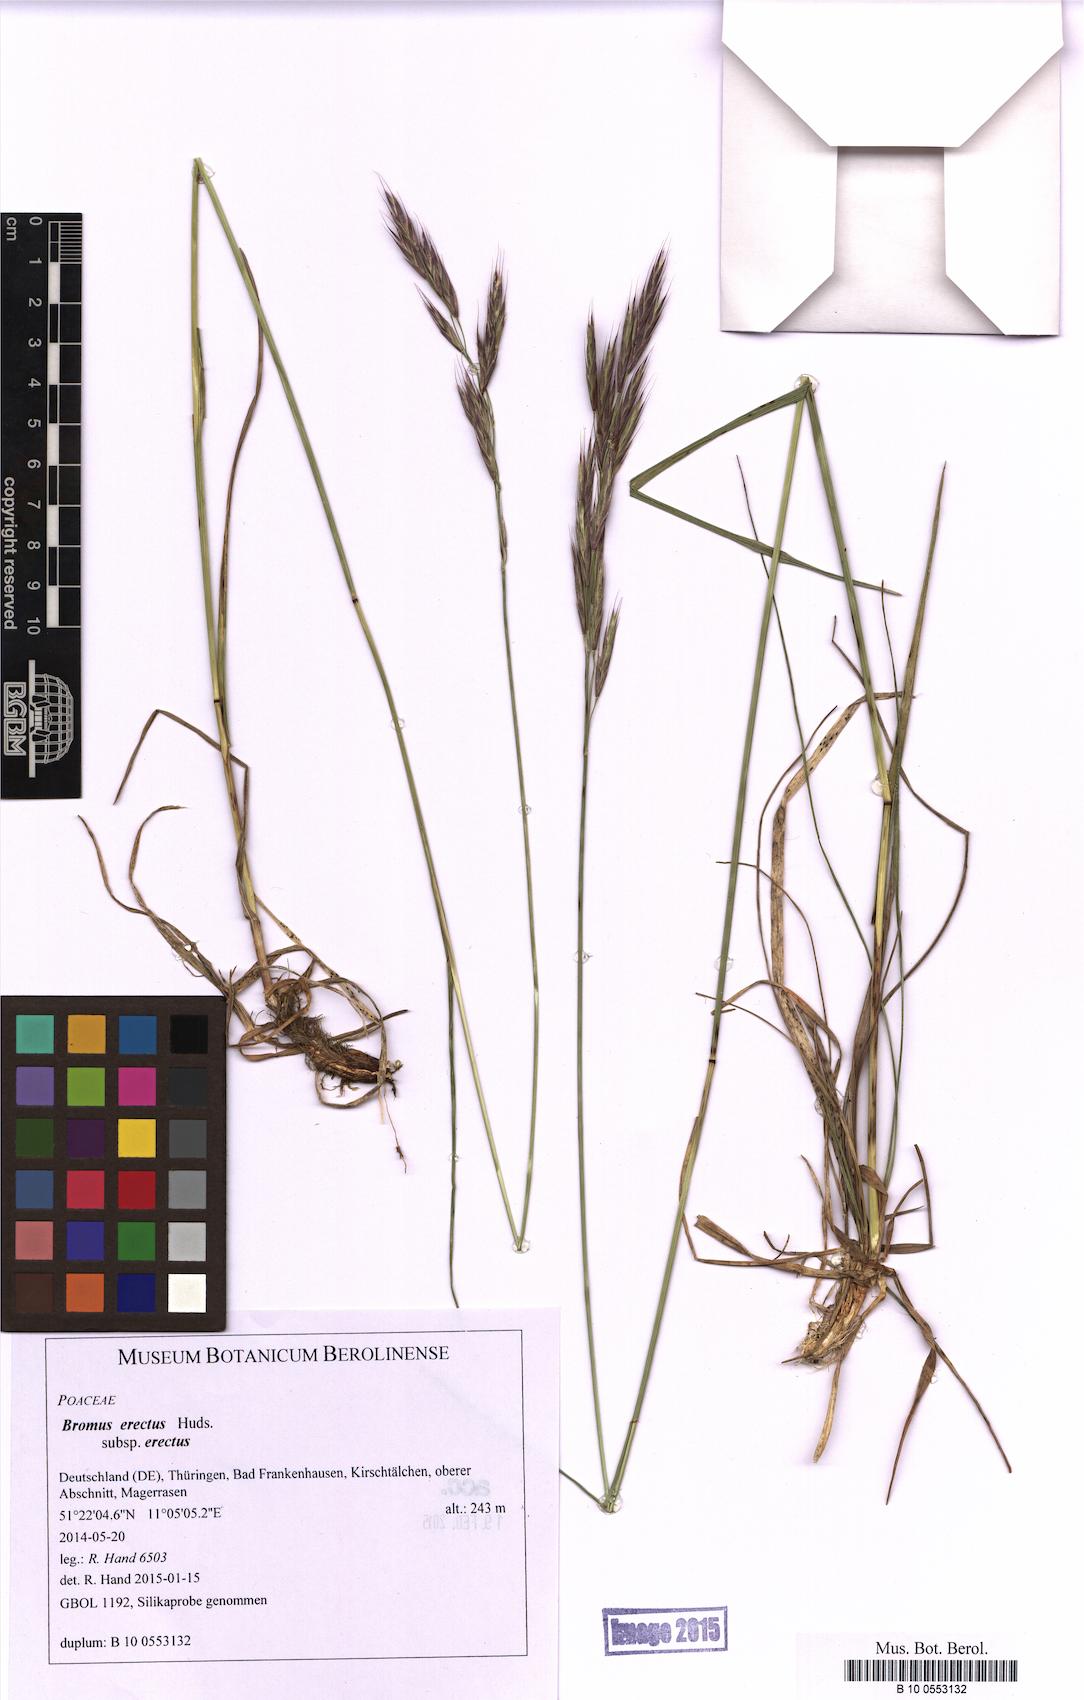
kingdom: Plantae
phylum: Tracheophyta
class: Liliopsida
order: Poales
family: Poaceae
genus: Bromus
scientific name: Bromus erectus
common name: Erect brome
